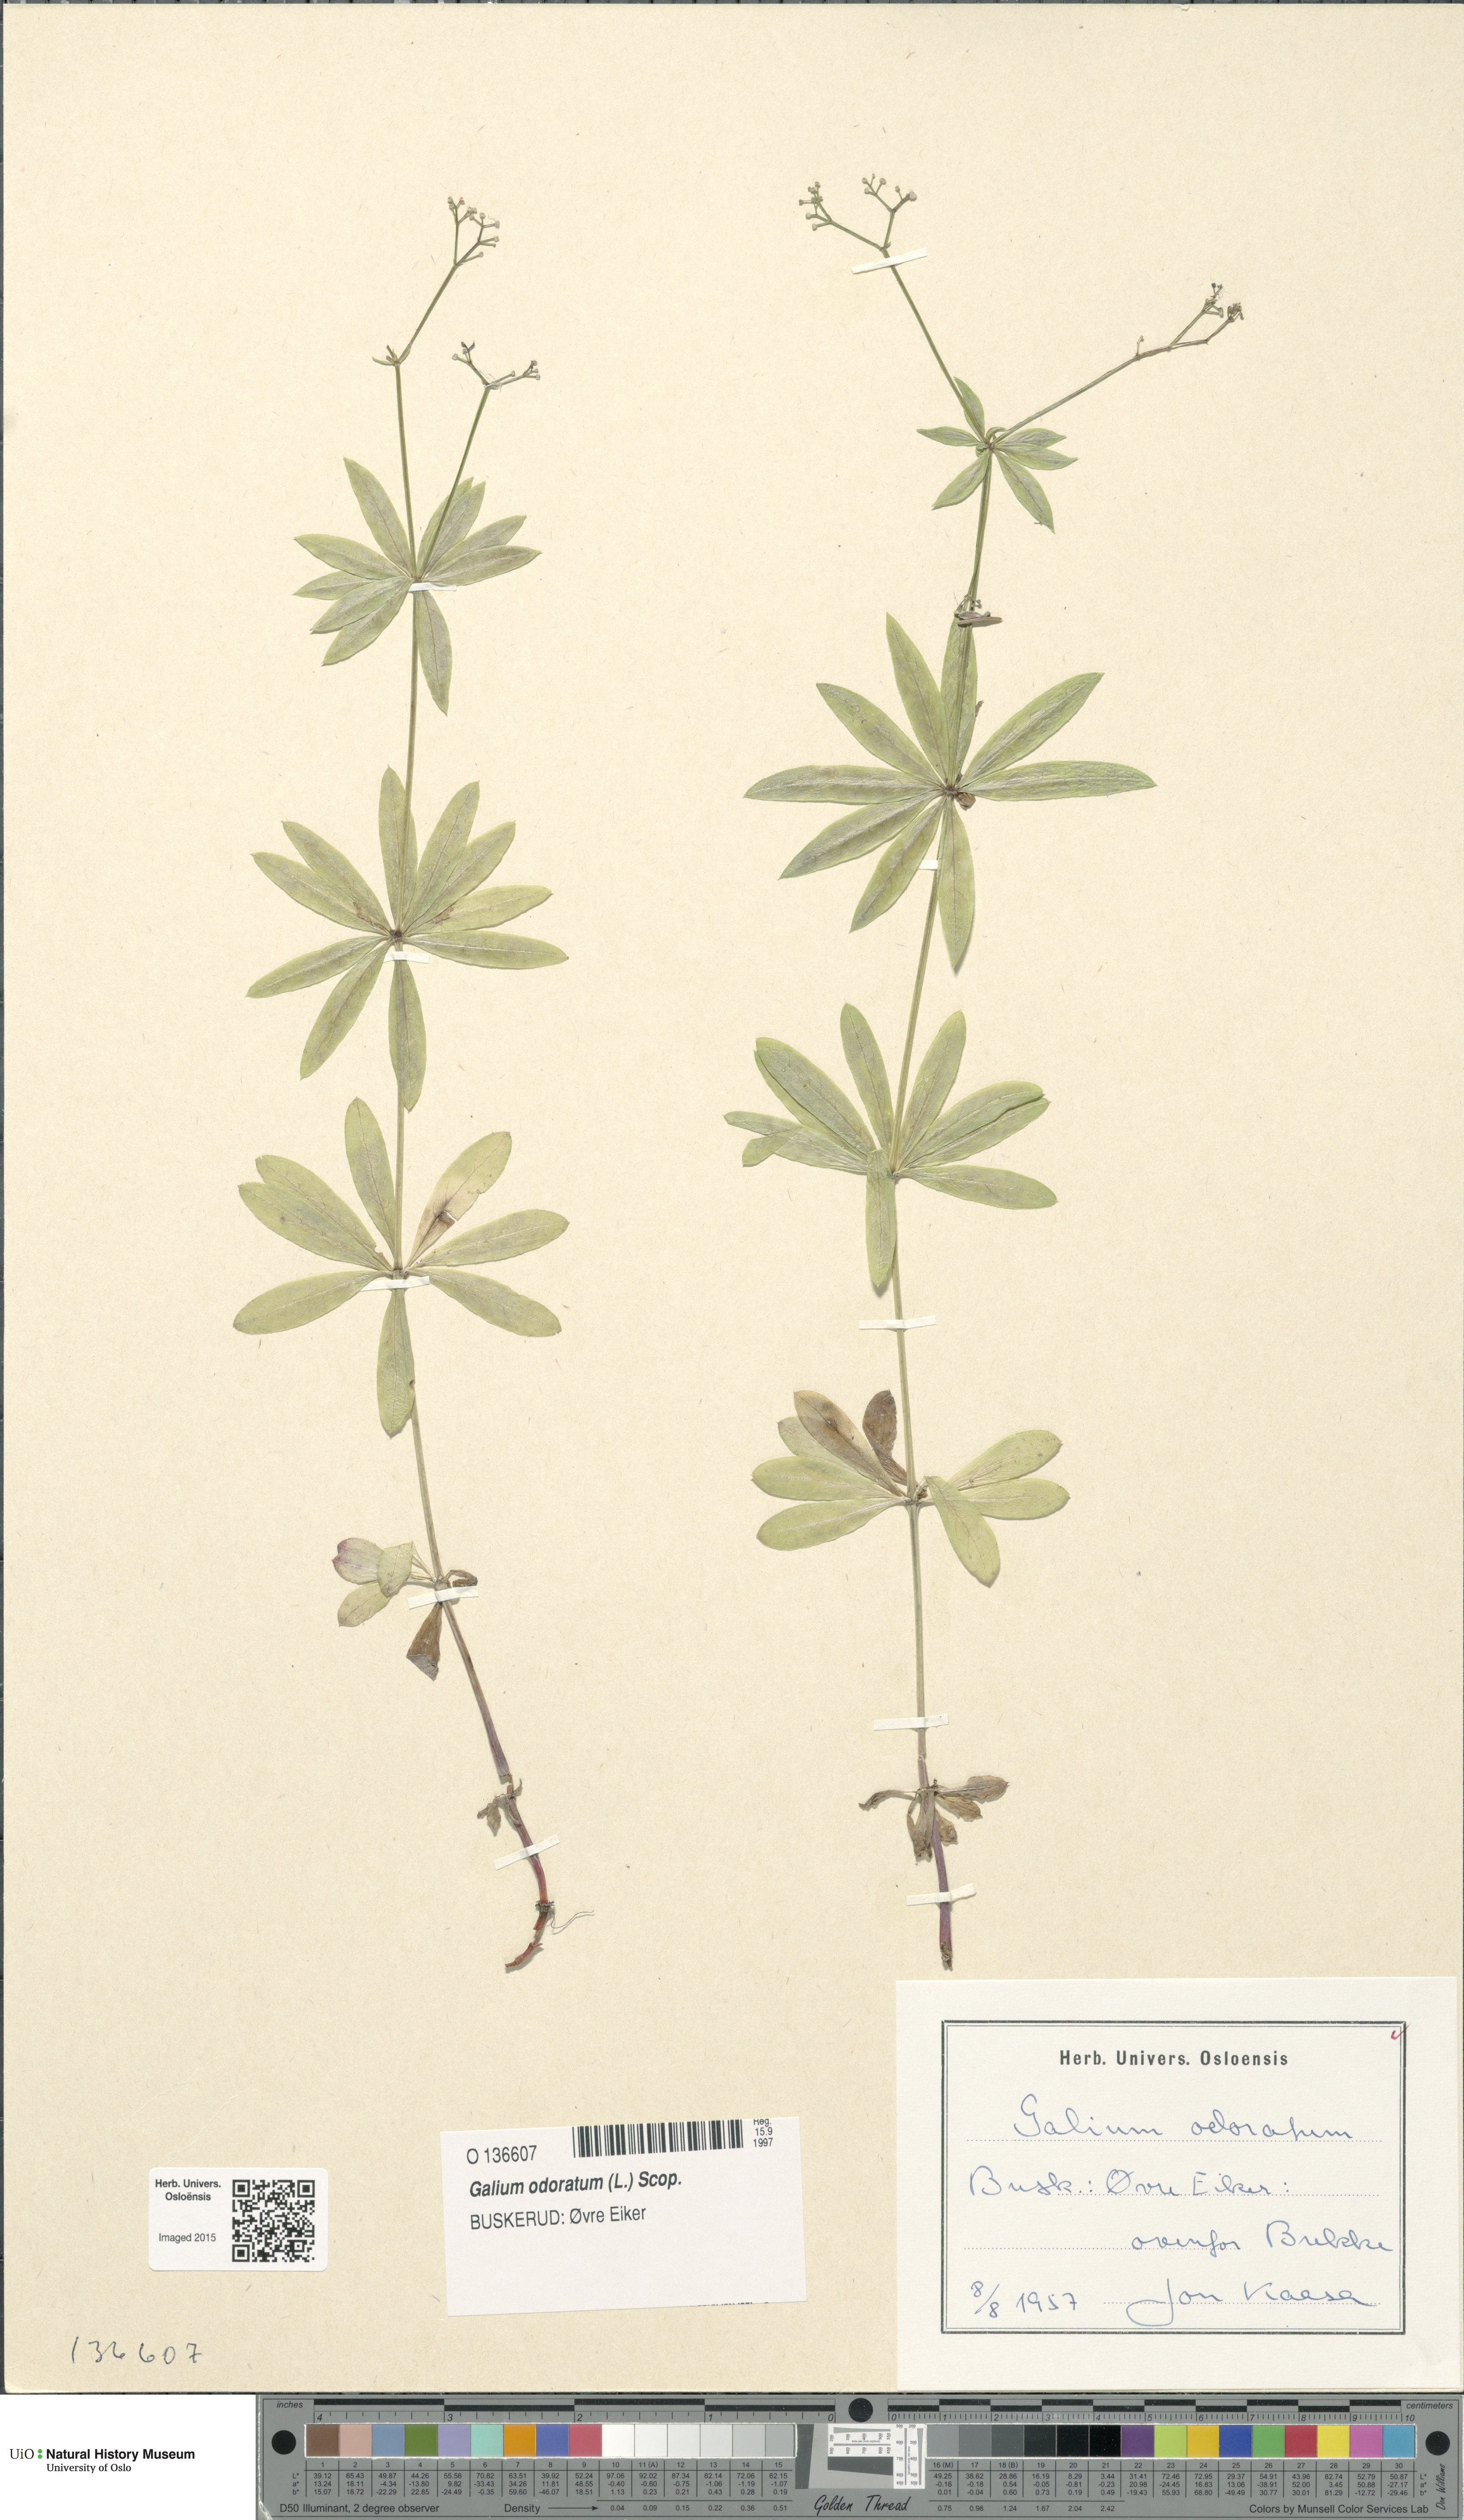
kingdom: Plantae
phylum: Tracheophyta
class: Magnoliopsida
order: Gentianales
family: Rubiaceae
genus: Galium
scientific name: Galium odoratum
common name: Sweet woodruff
